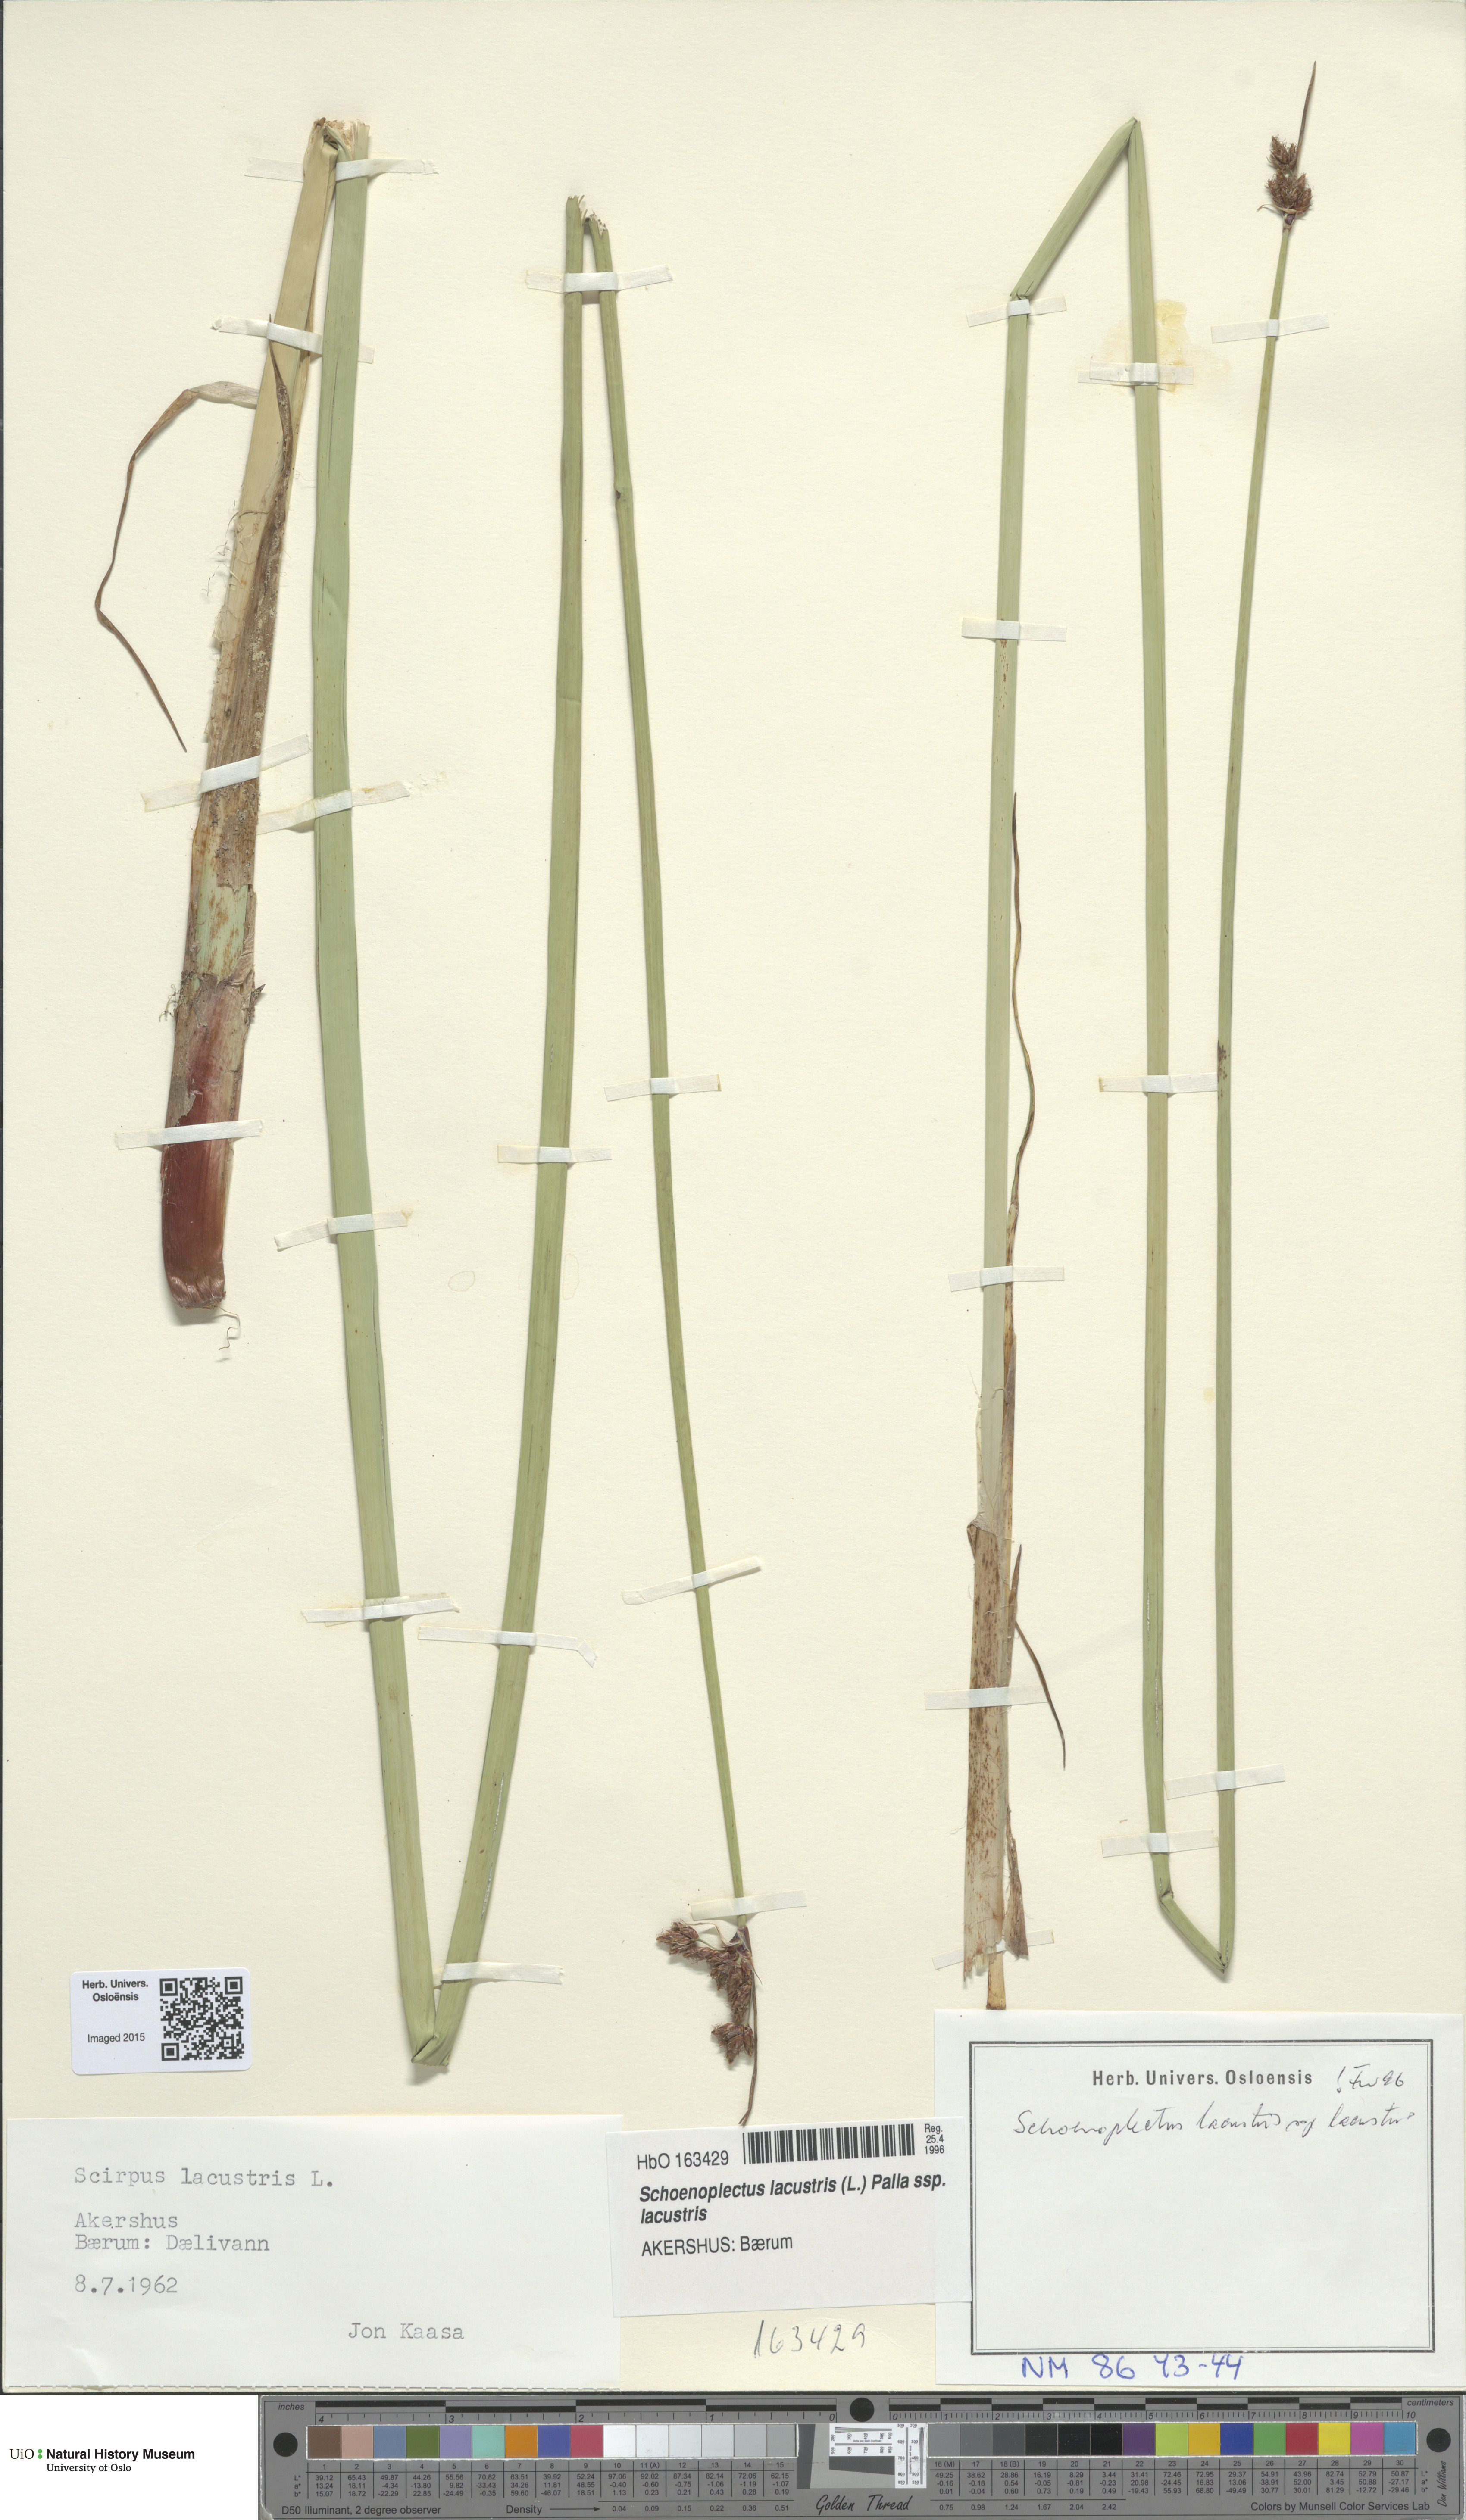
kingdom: Plantae
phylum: Tracheophyta
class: Liliopsida
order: Poales
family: Cyperaceae
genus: Schoenoplectus
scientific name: Schoenoplectus lacustris
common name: Common club-rush
